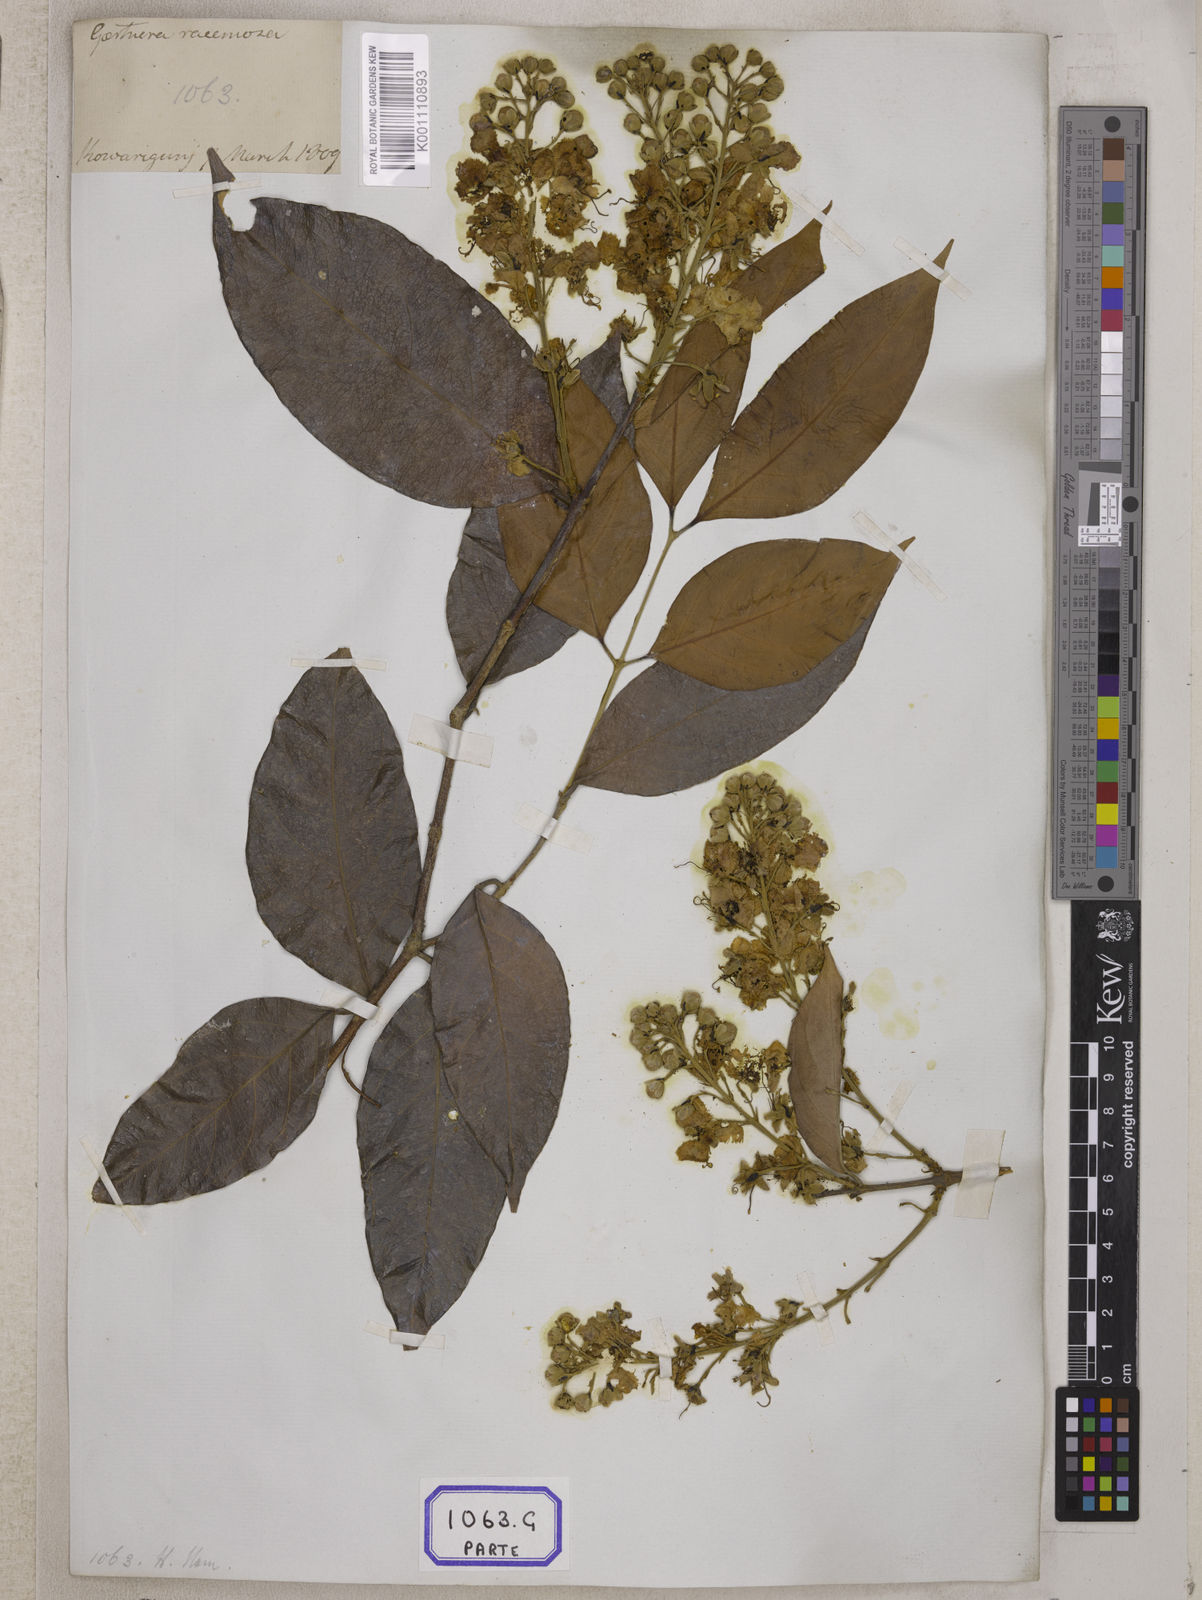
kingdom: Plantae
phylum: Tracheophyta
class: Magnoliopsida
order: Malpighiales
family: Malpighiaceae
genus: Hiptage
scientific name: Hiptage benghalensis
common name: Hiptage
